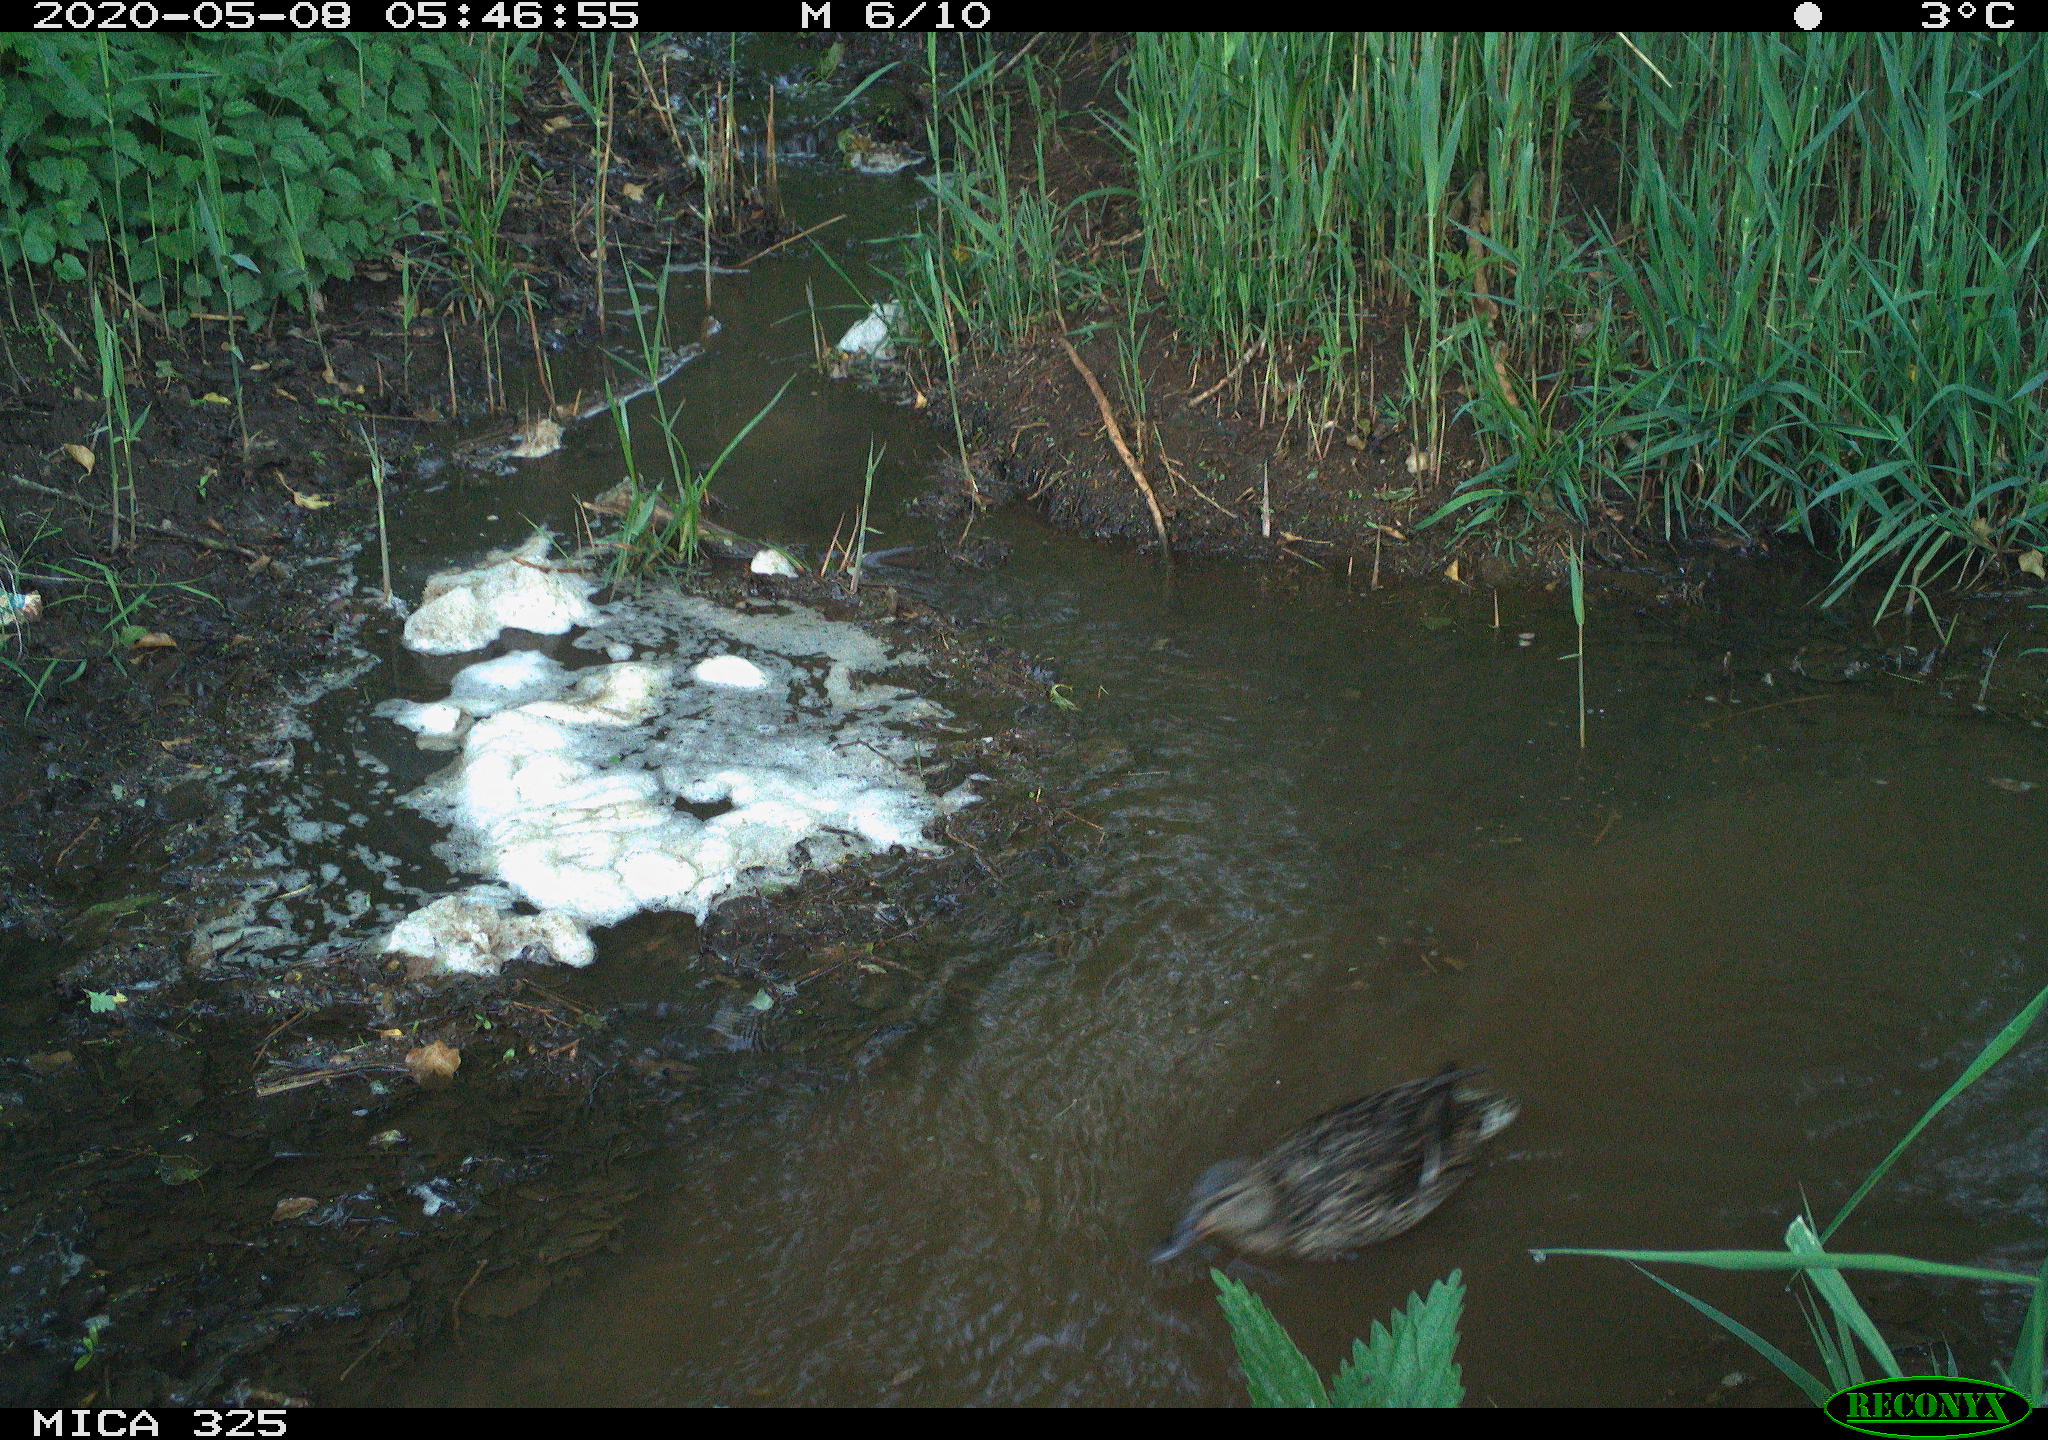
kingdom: Animalia
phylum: Chordata
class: Aves
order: Anseriformes
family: Anatidae
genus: Anas
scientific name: Anas platyrhynchos
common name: Mallard
